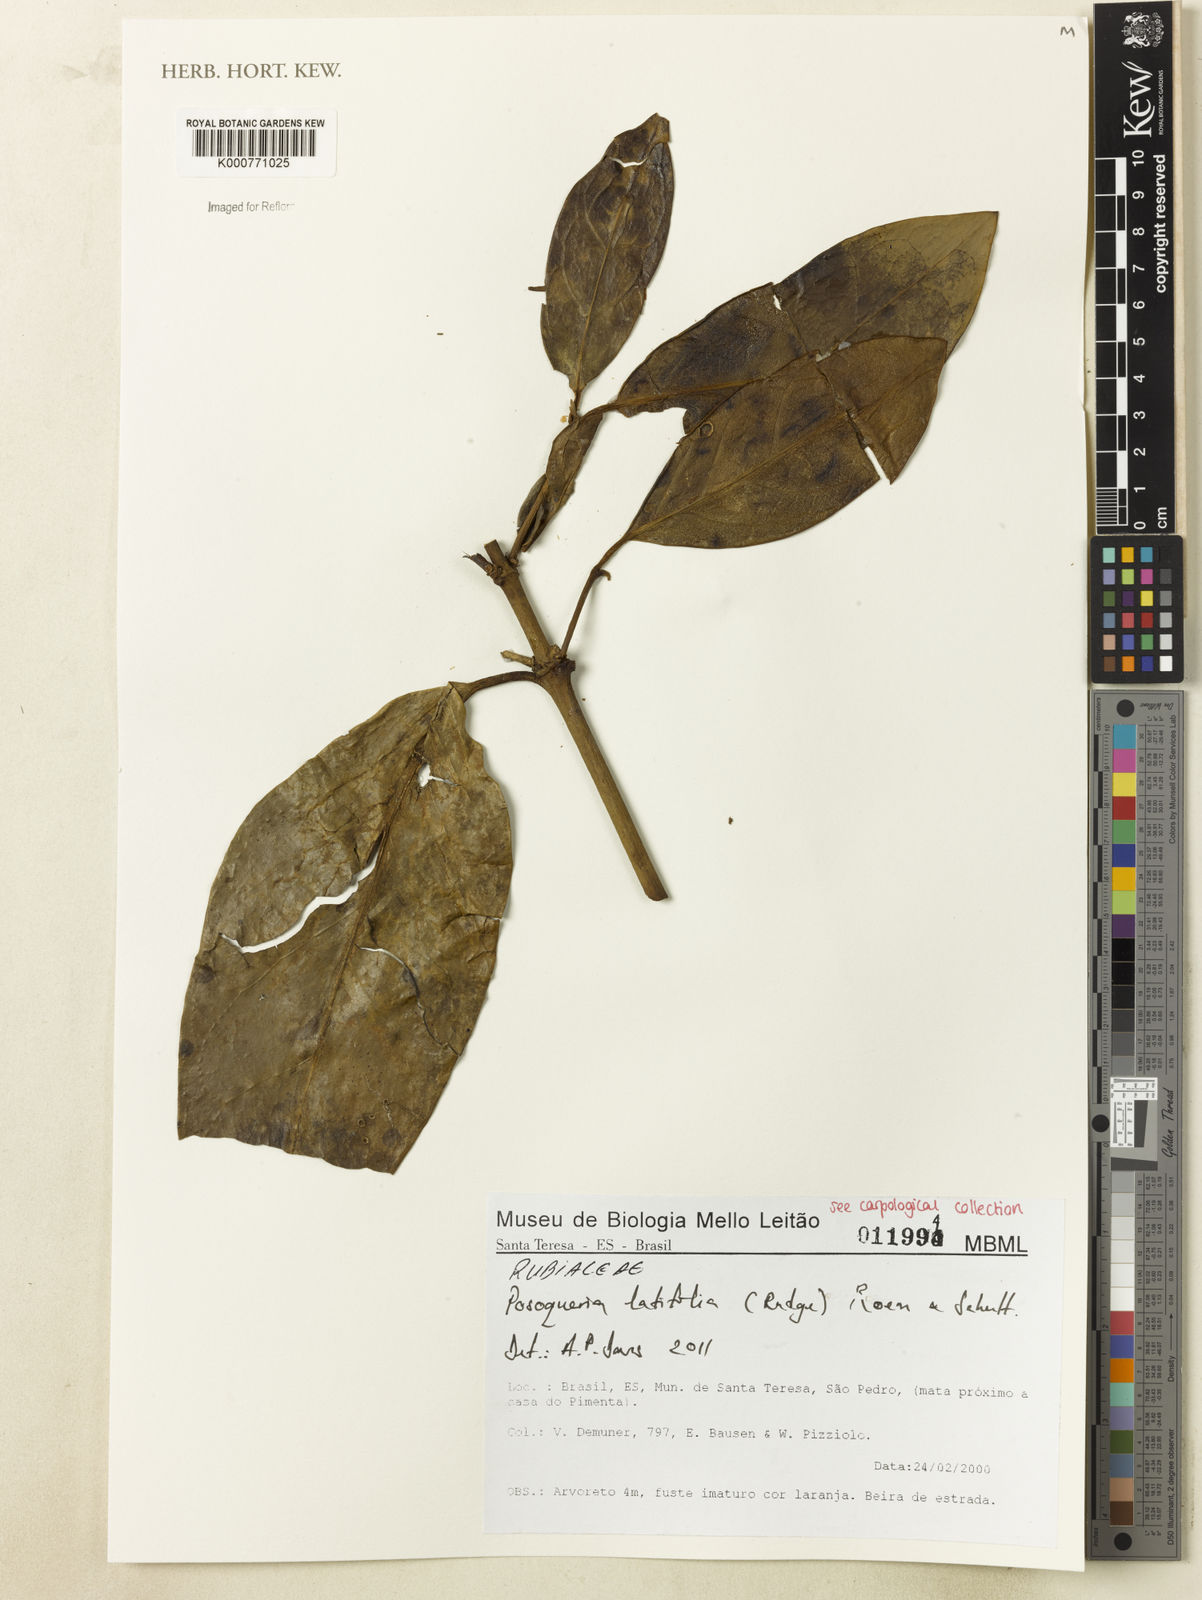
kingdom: Plantae
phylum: Tracheophyta
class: Magnoliopsida
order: Gentianales
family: Rubiaceae
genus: Posoqueria
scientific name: Posoqueria latifolia
